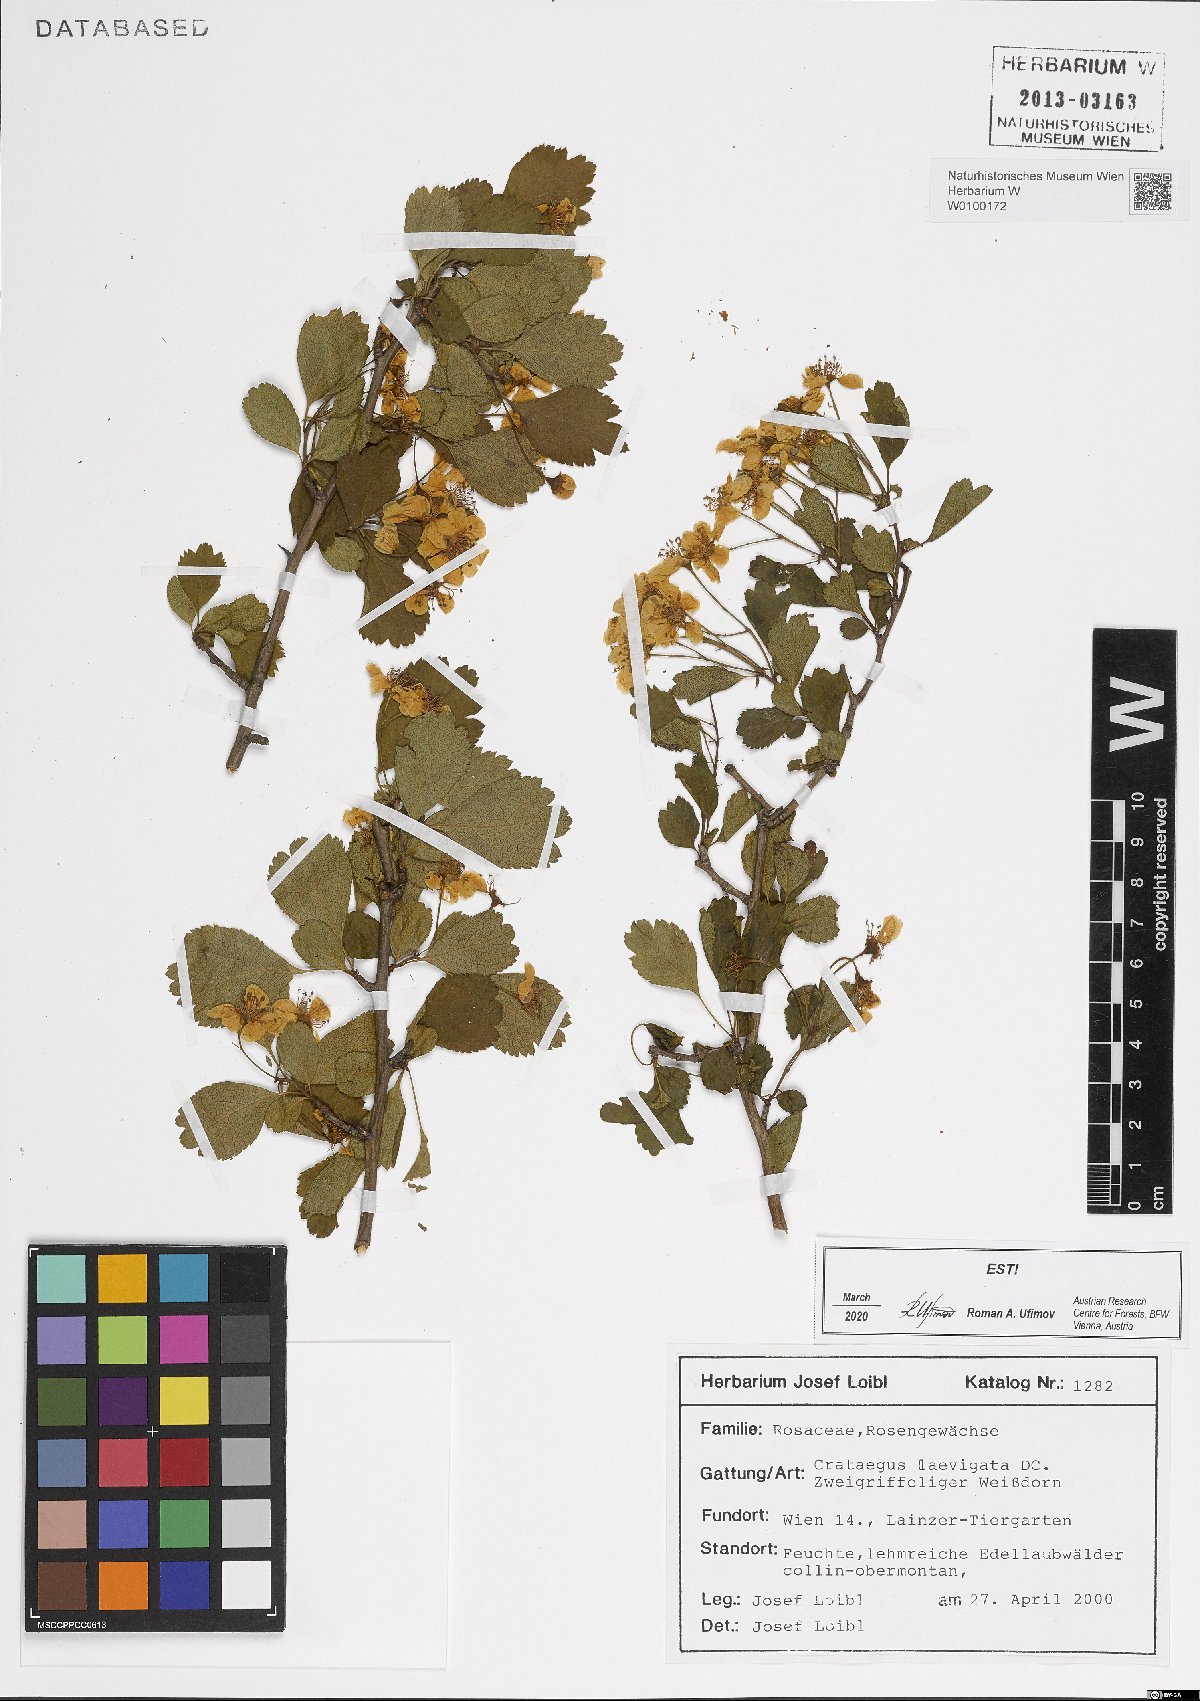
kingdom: Plantae
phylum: Tracheophyta
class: Magnoliopsida
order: Rosales
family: Rosaceae
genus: Crataegus
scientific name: Crataegus laevigata
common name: Midland hawthorn
